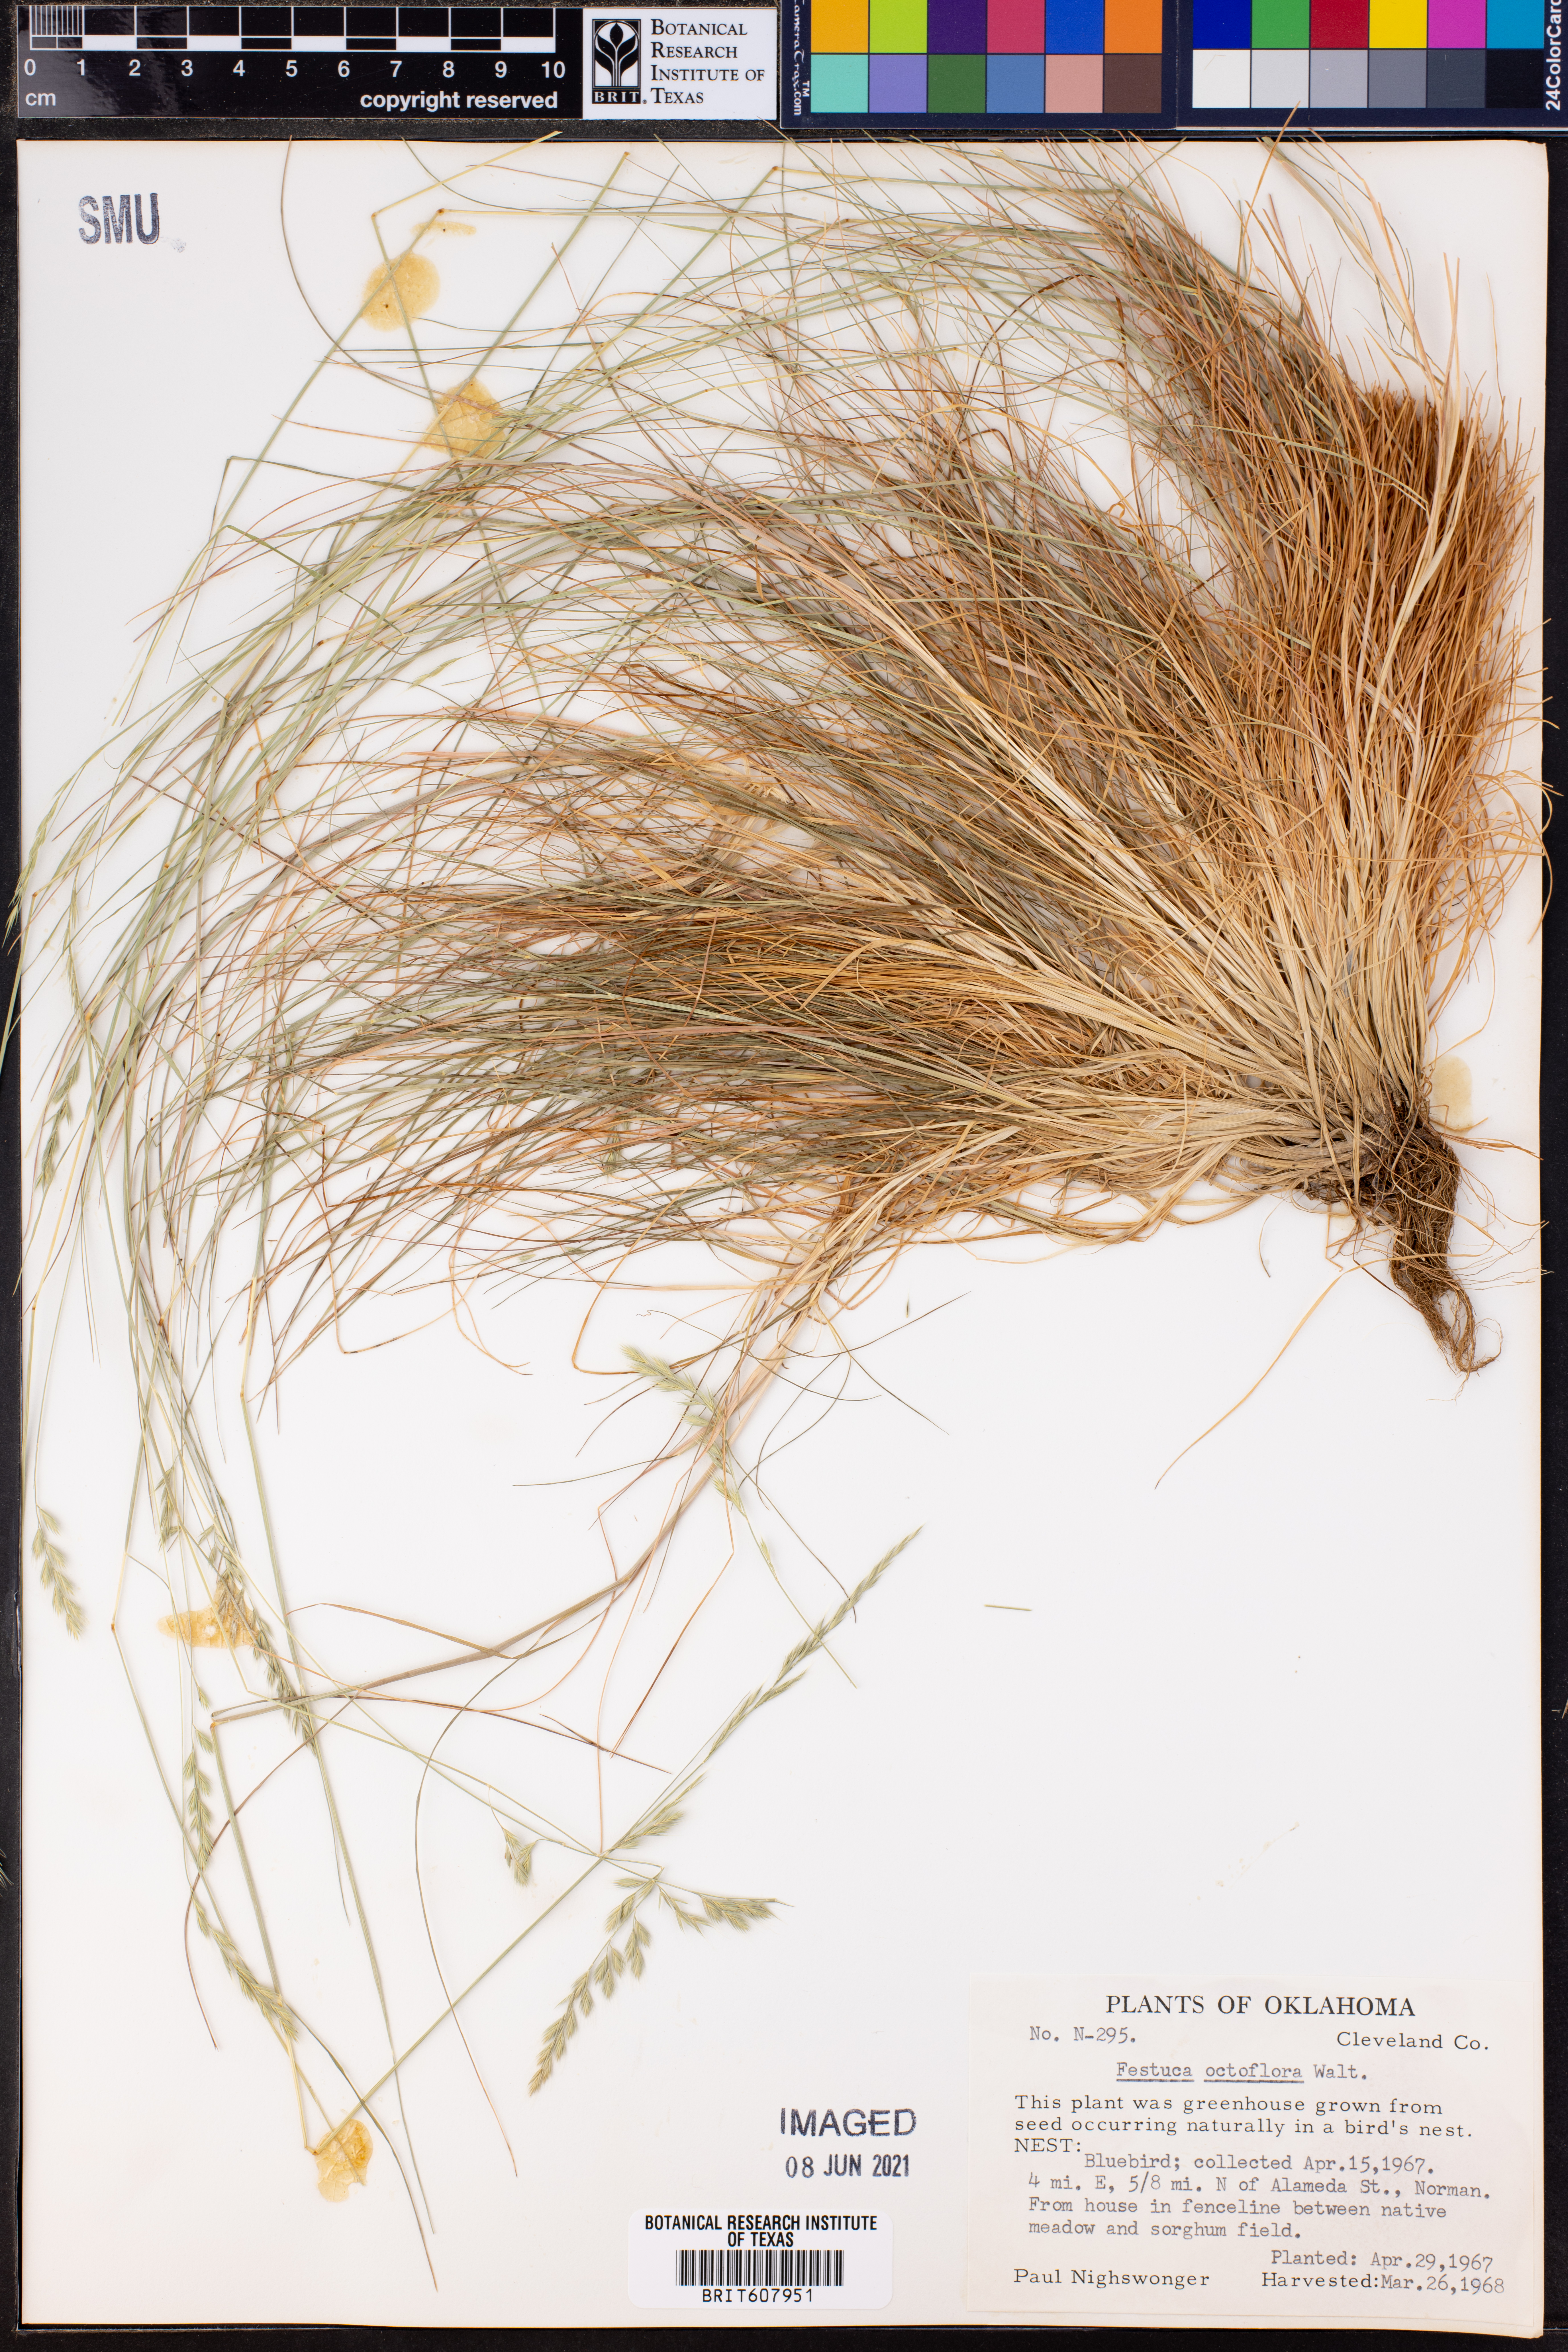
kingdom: Plantae
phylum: Tracheophyta
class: Liliopsida
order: Poales
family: Poaceae
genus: Festuca
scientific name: Festuca octoflora
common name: Sixweeks grass
